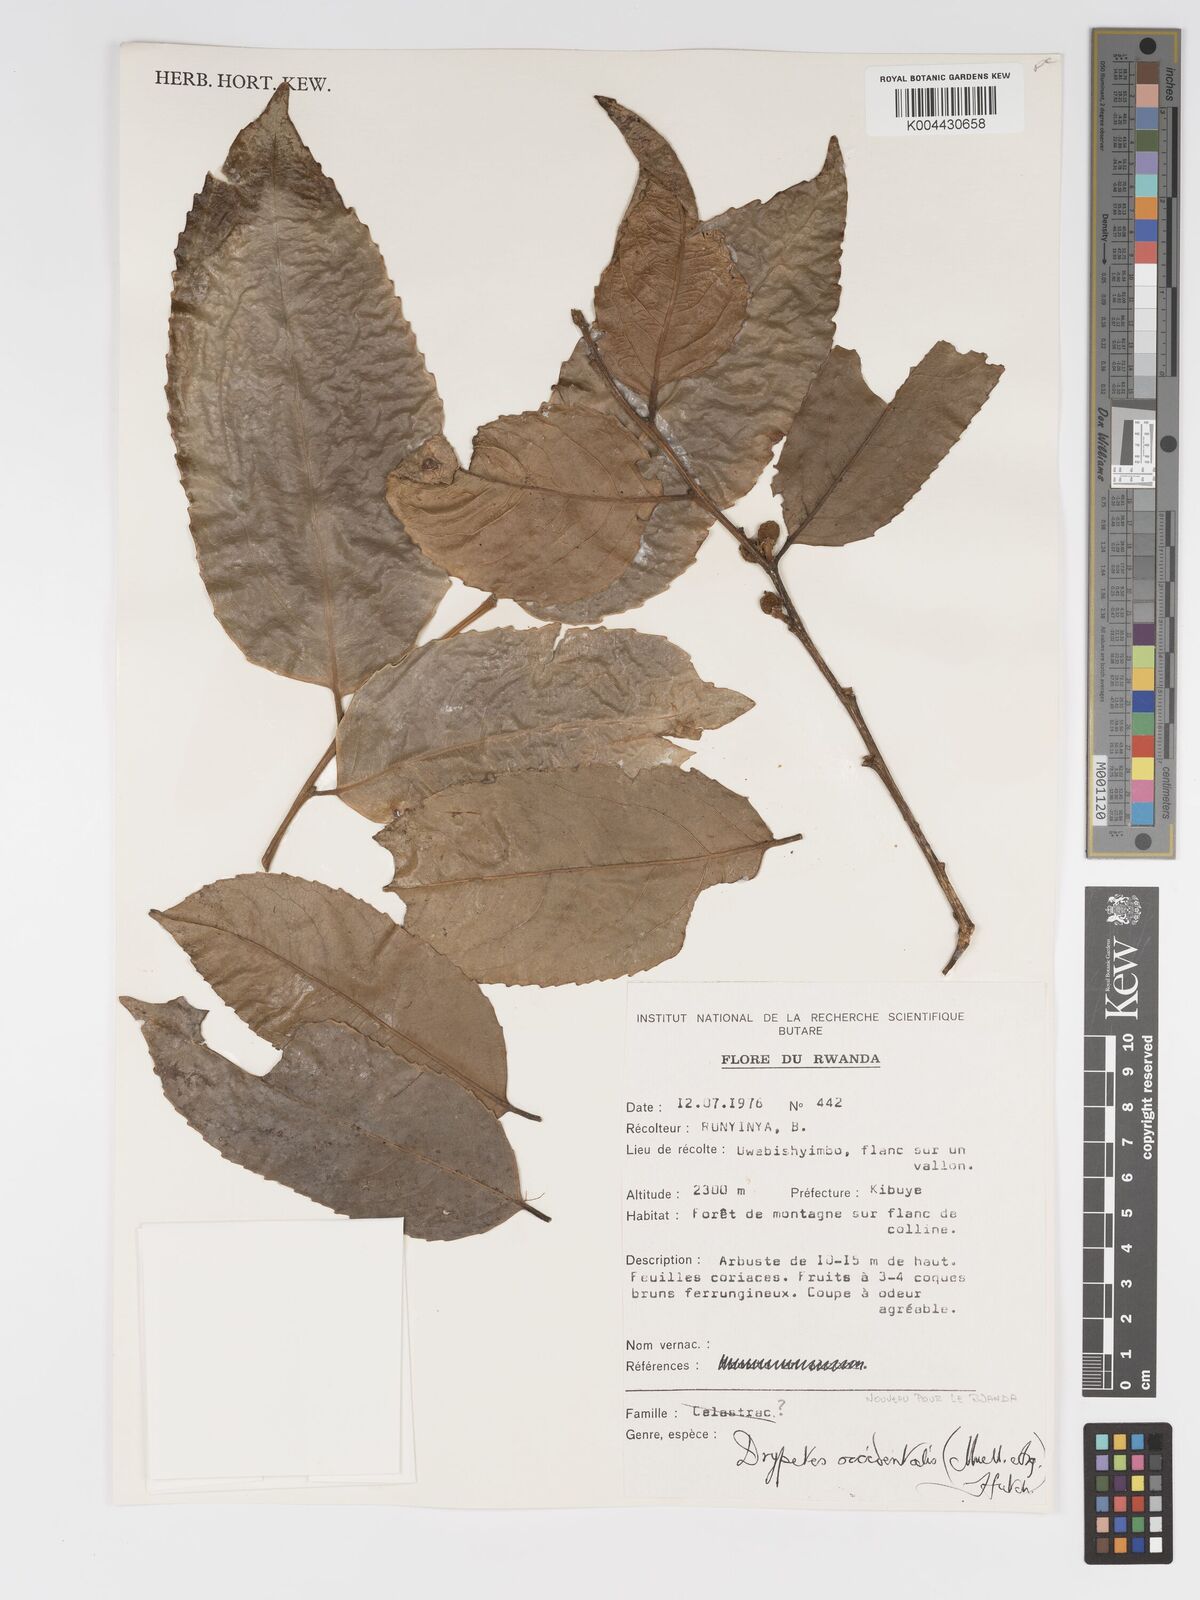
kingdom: Plantae
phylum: Tracheophyta
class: Magnoliopsida
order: Malpighiales
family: Putranjivaceae
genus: Drypetes
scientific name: Drypetes occidentalis
